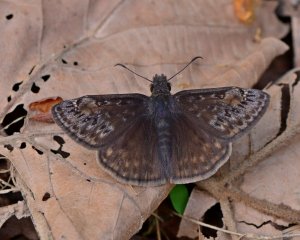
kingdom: Animalia
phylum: Arthropoda
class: Insecta
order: Lepidoptera
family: Hesperiidae
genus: Gesta
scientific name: Gesta
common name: Wild Indigo Duskywing
